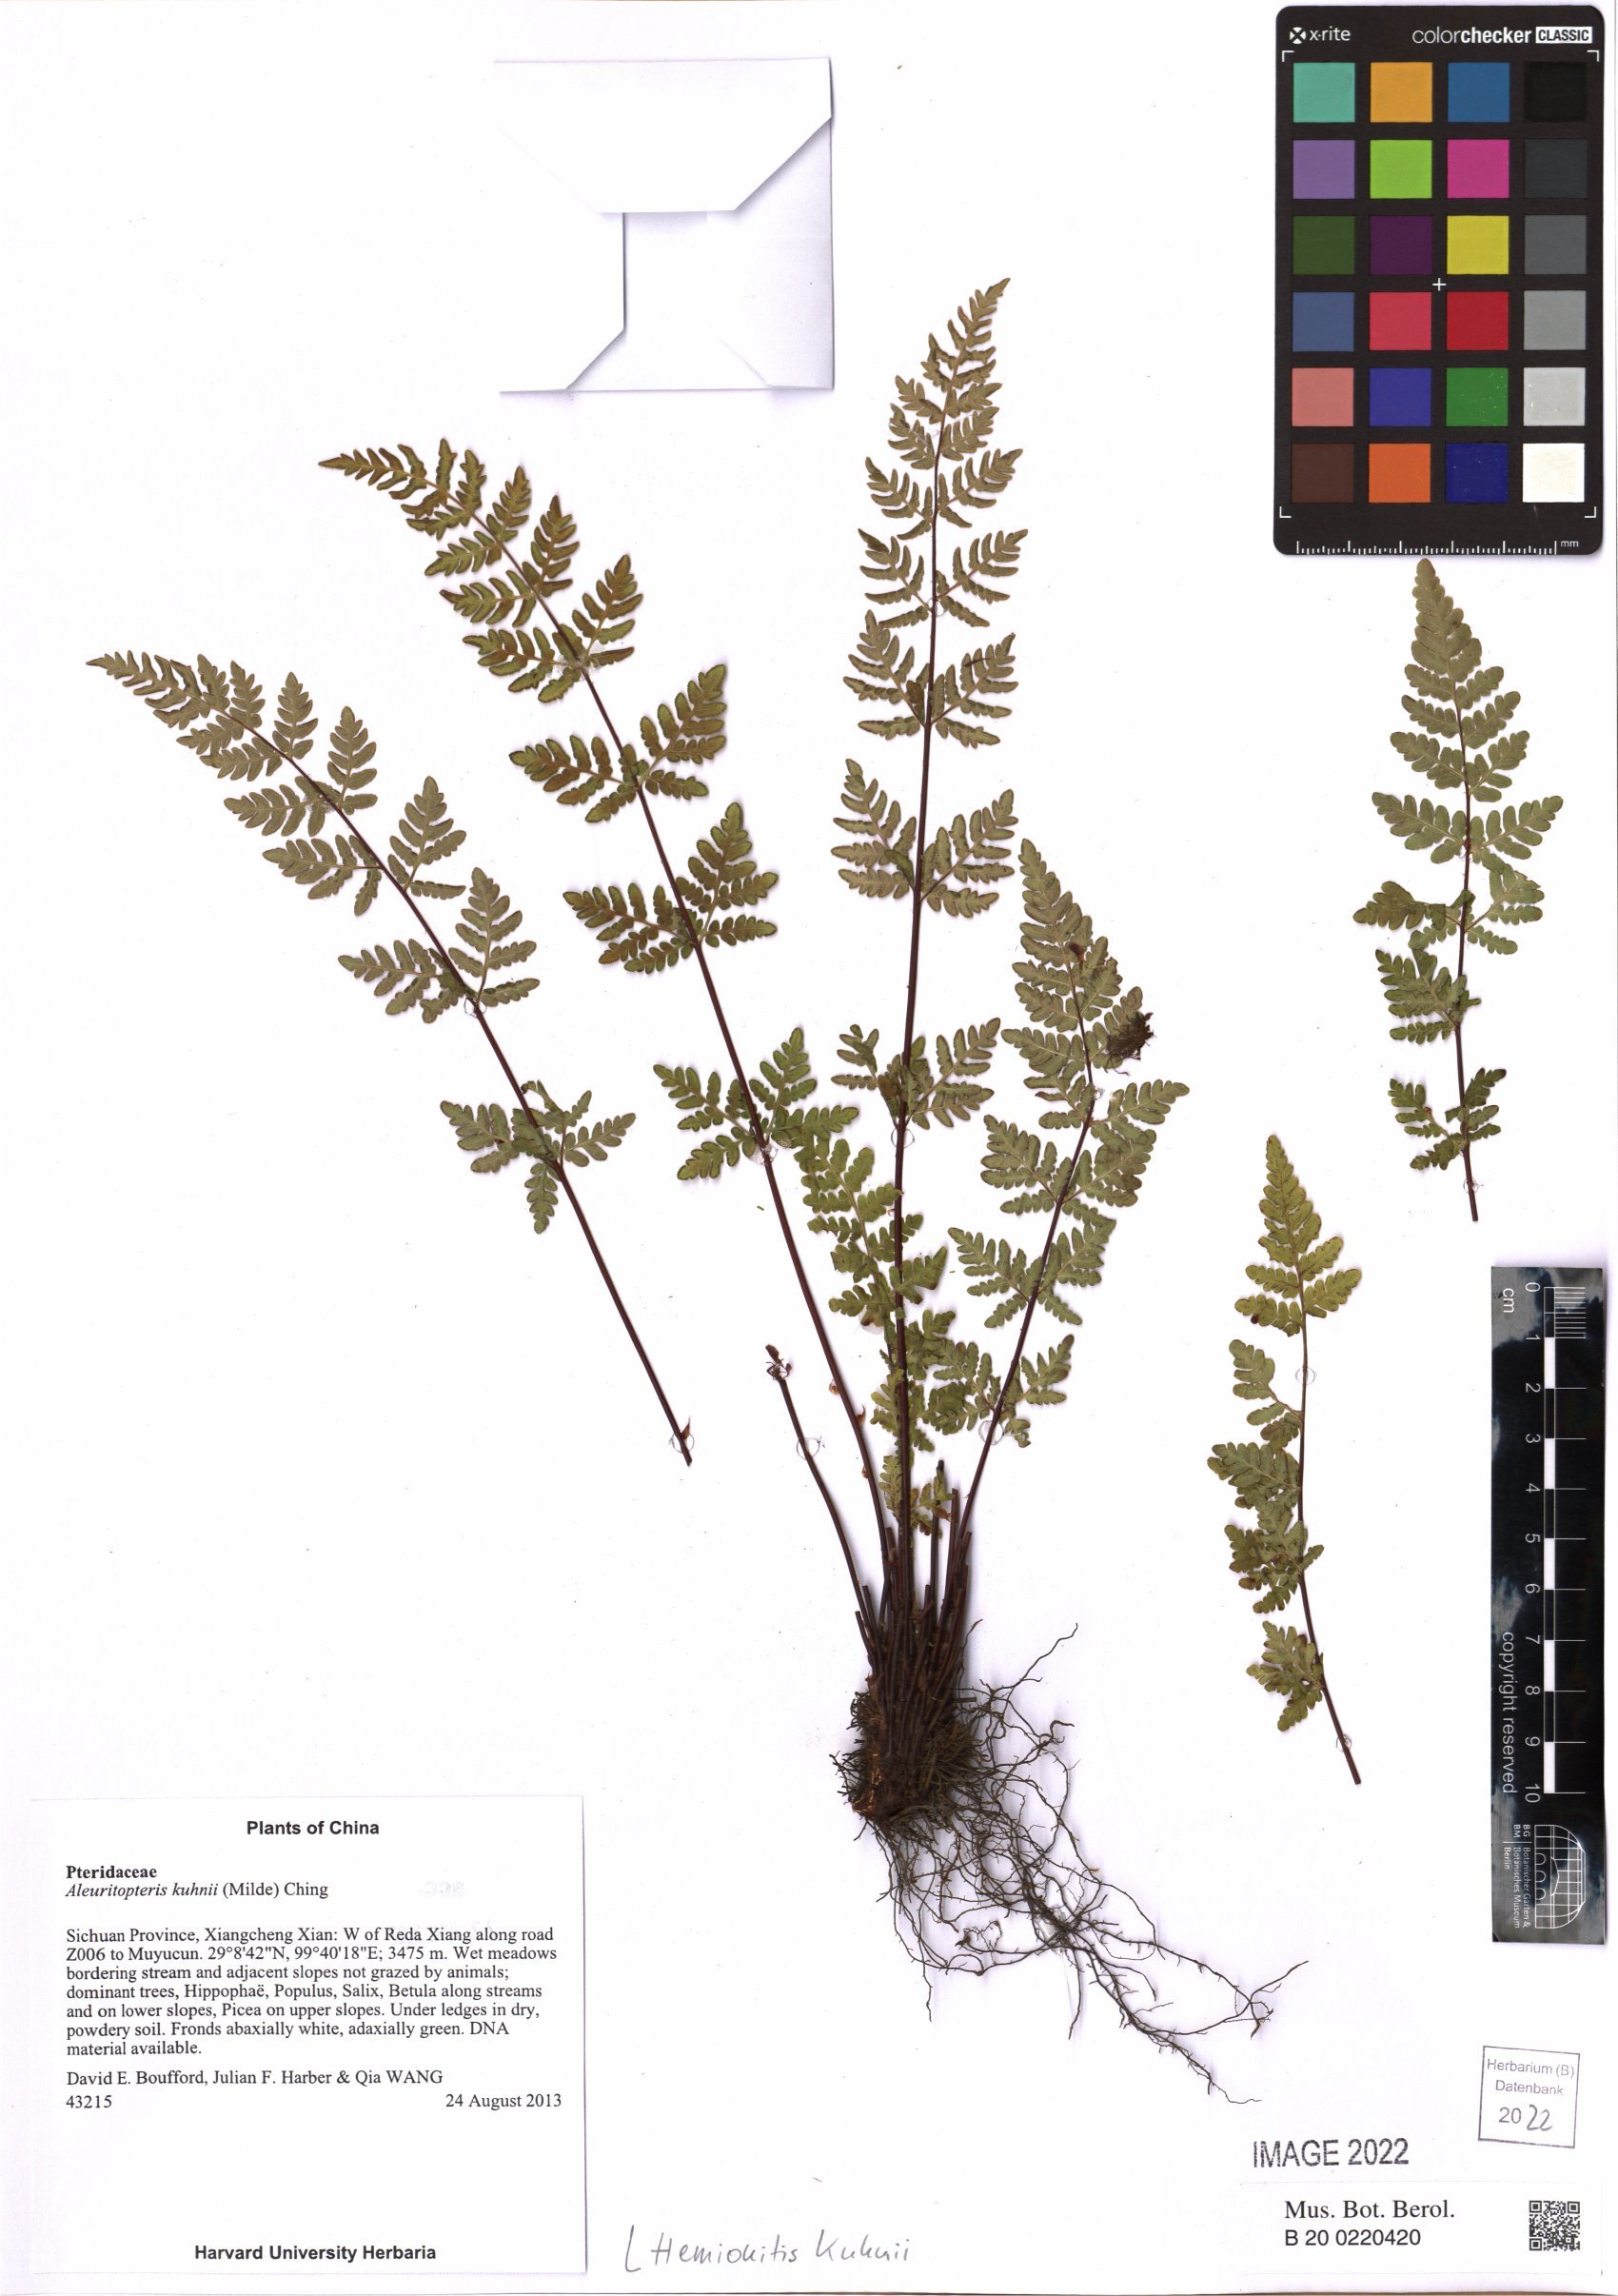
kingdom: Plantae
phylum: Tracheophyta
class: Polypodiopsida
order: Polypodiales
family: Pteridaceae
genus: Oeosporangium
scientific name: Oeosporangium kuhnii
